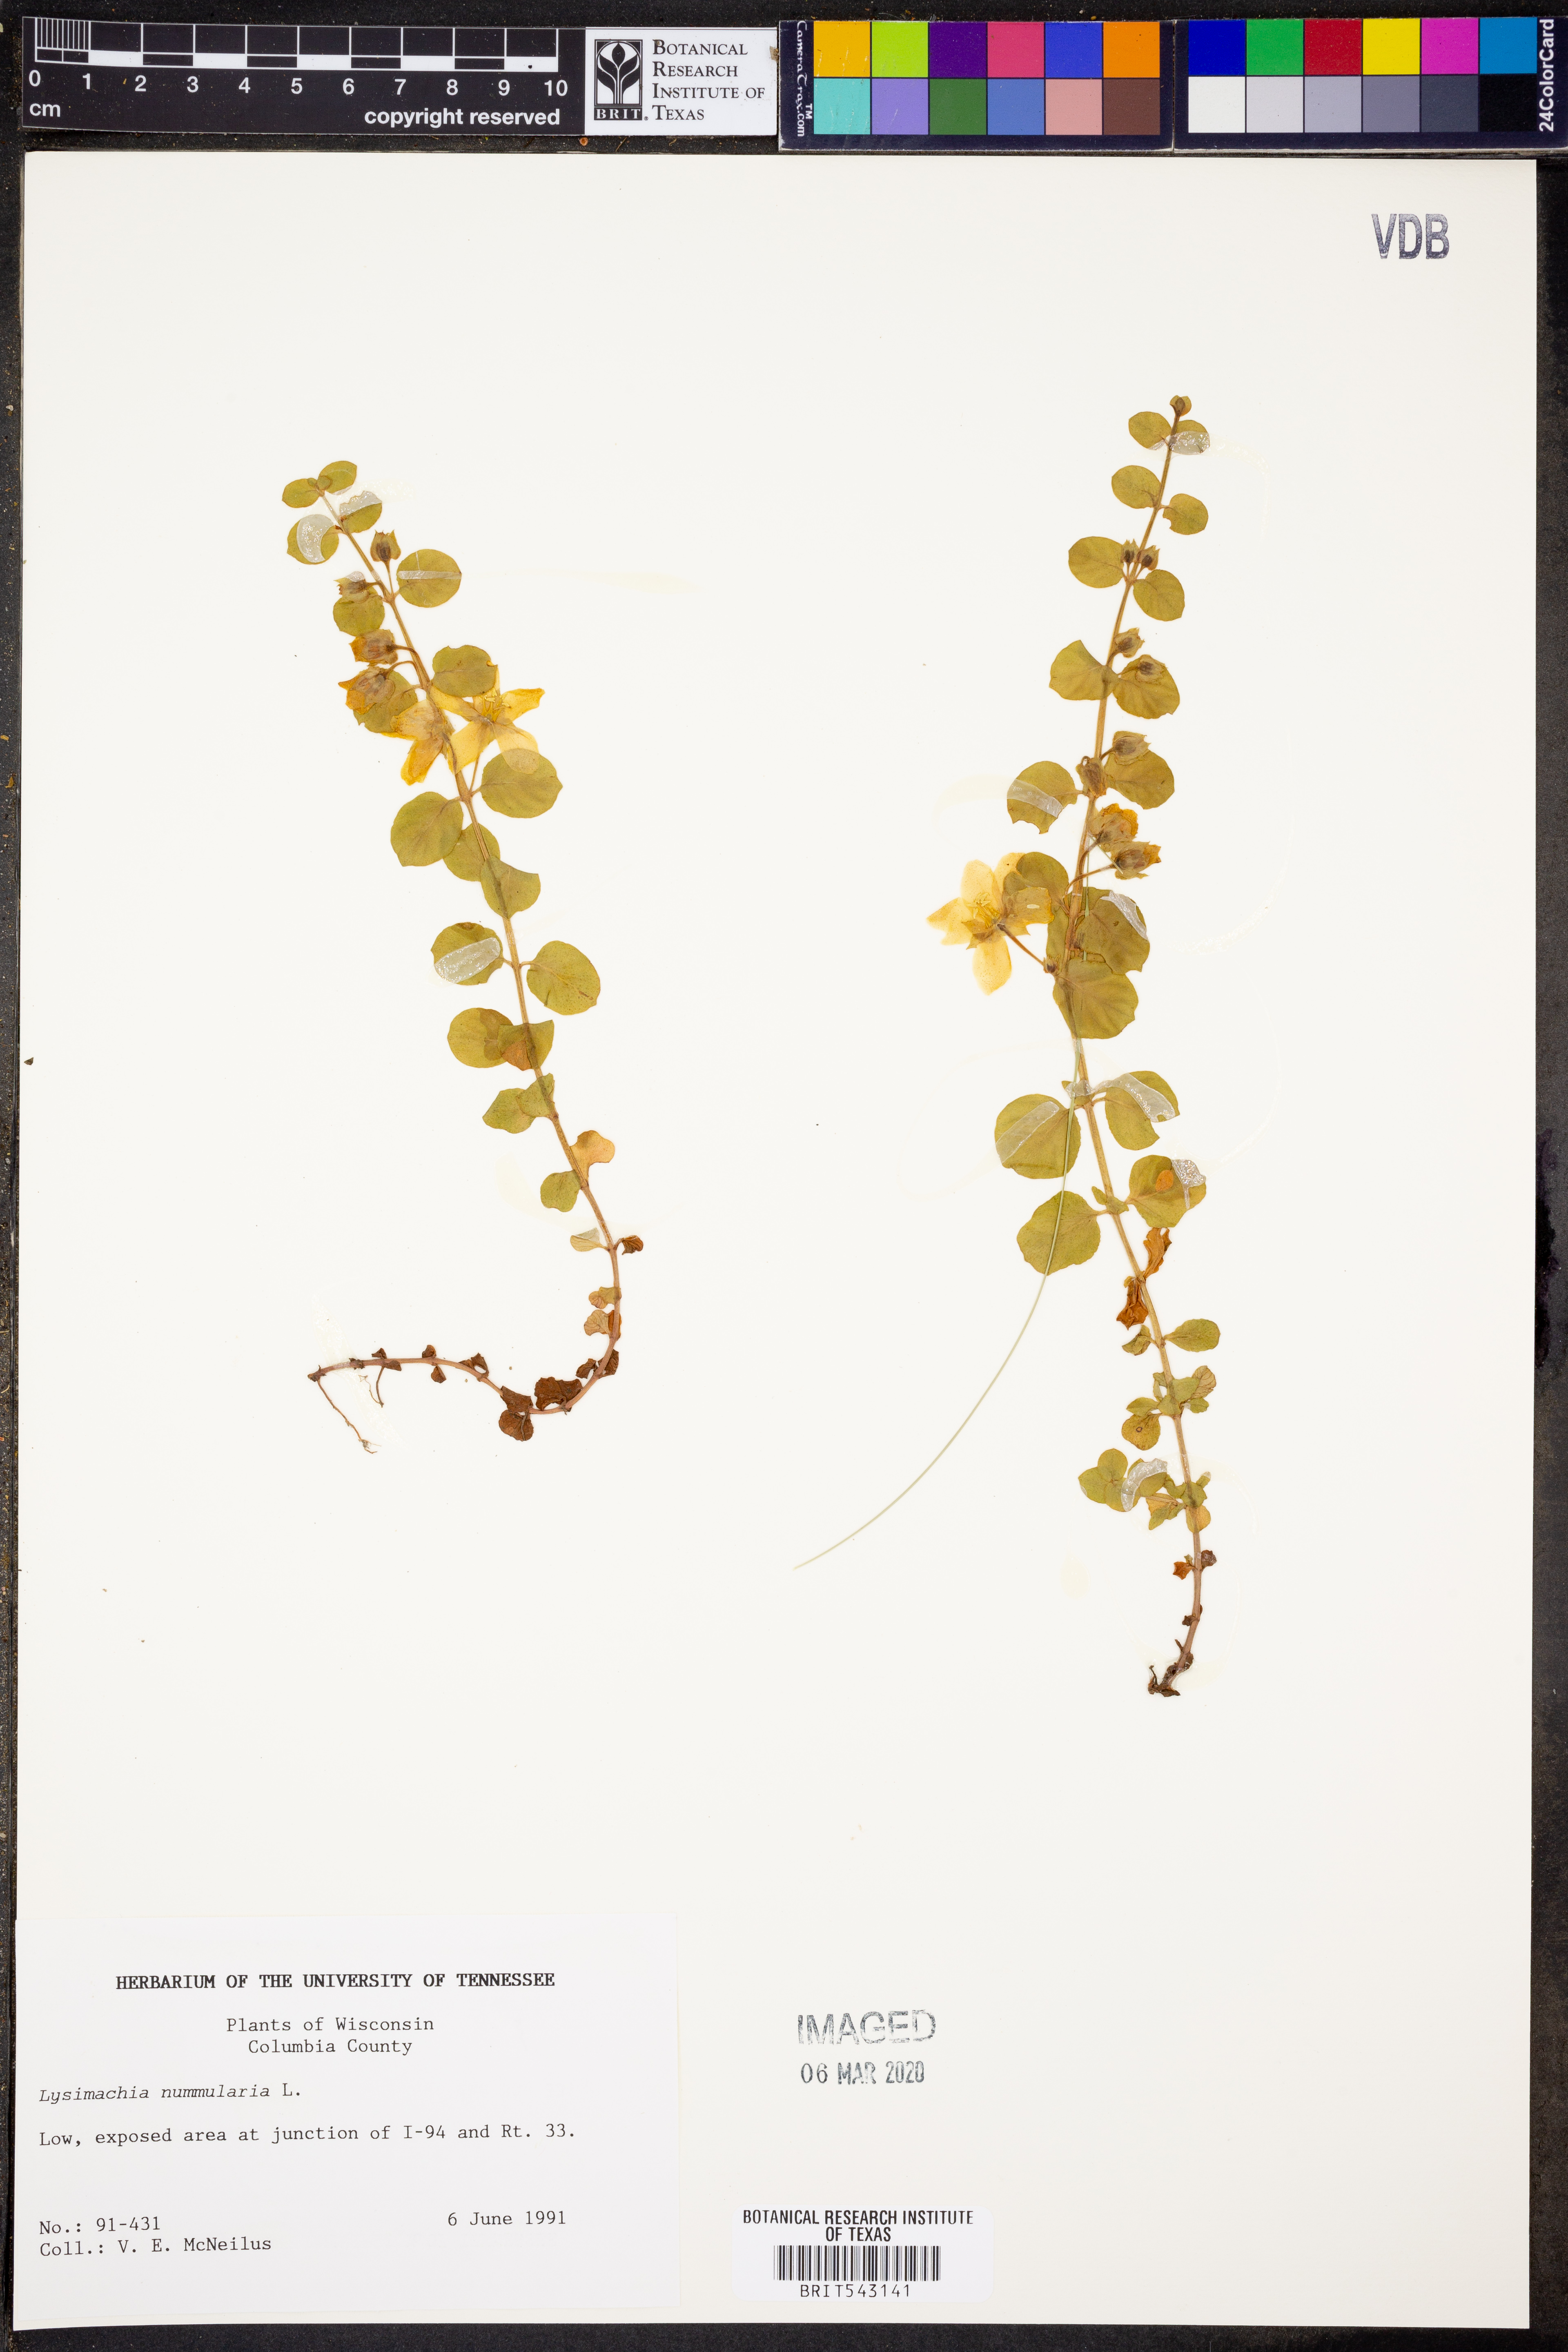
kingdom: Plantae
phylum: Tracheophyta
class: Magnoliopsida
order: Ericales
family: Primulaceae
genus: Lysimachia
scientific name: Lysimachia nummularia
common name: Moneywort
